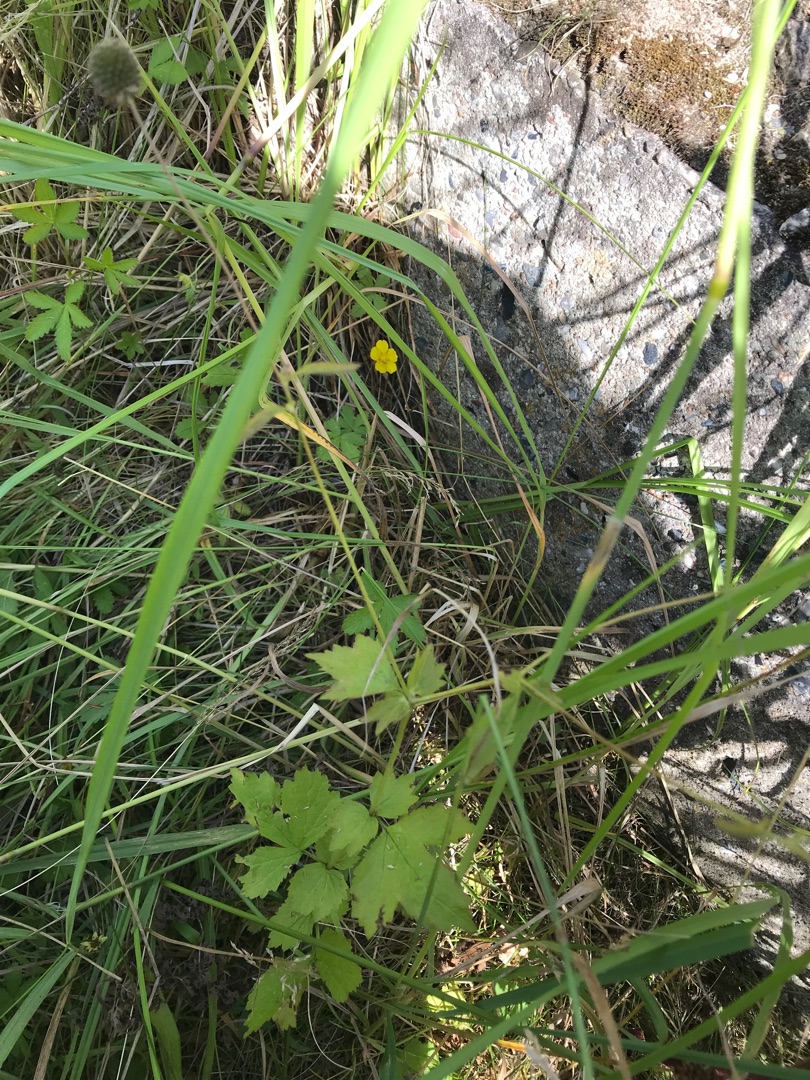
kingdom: Plantae
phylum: Tracheophyta
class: Magnoliopsida
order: Rosales
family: Rosaceae
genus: Geum
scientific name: Geum urbanum
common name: Feber-nellikerod
